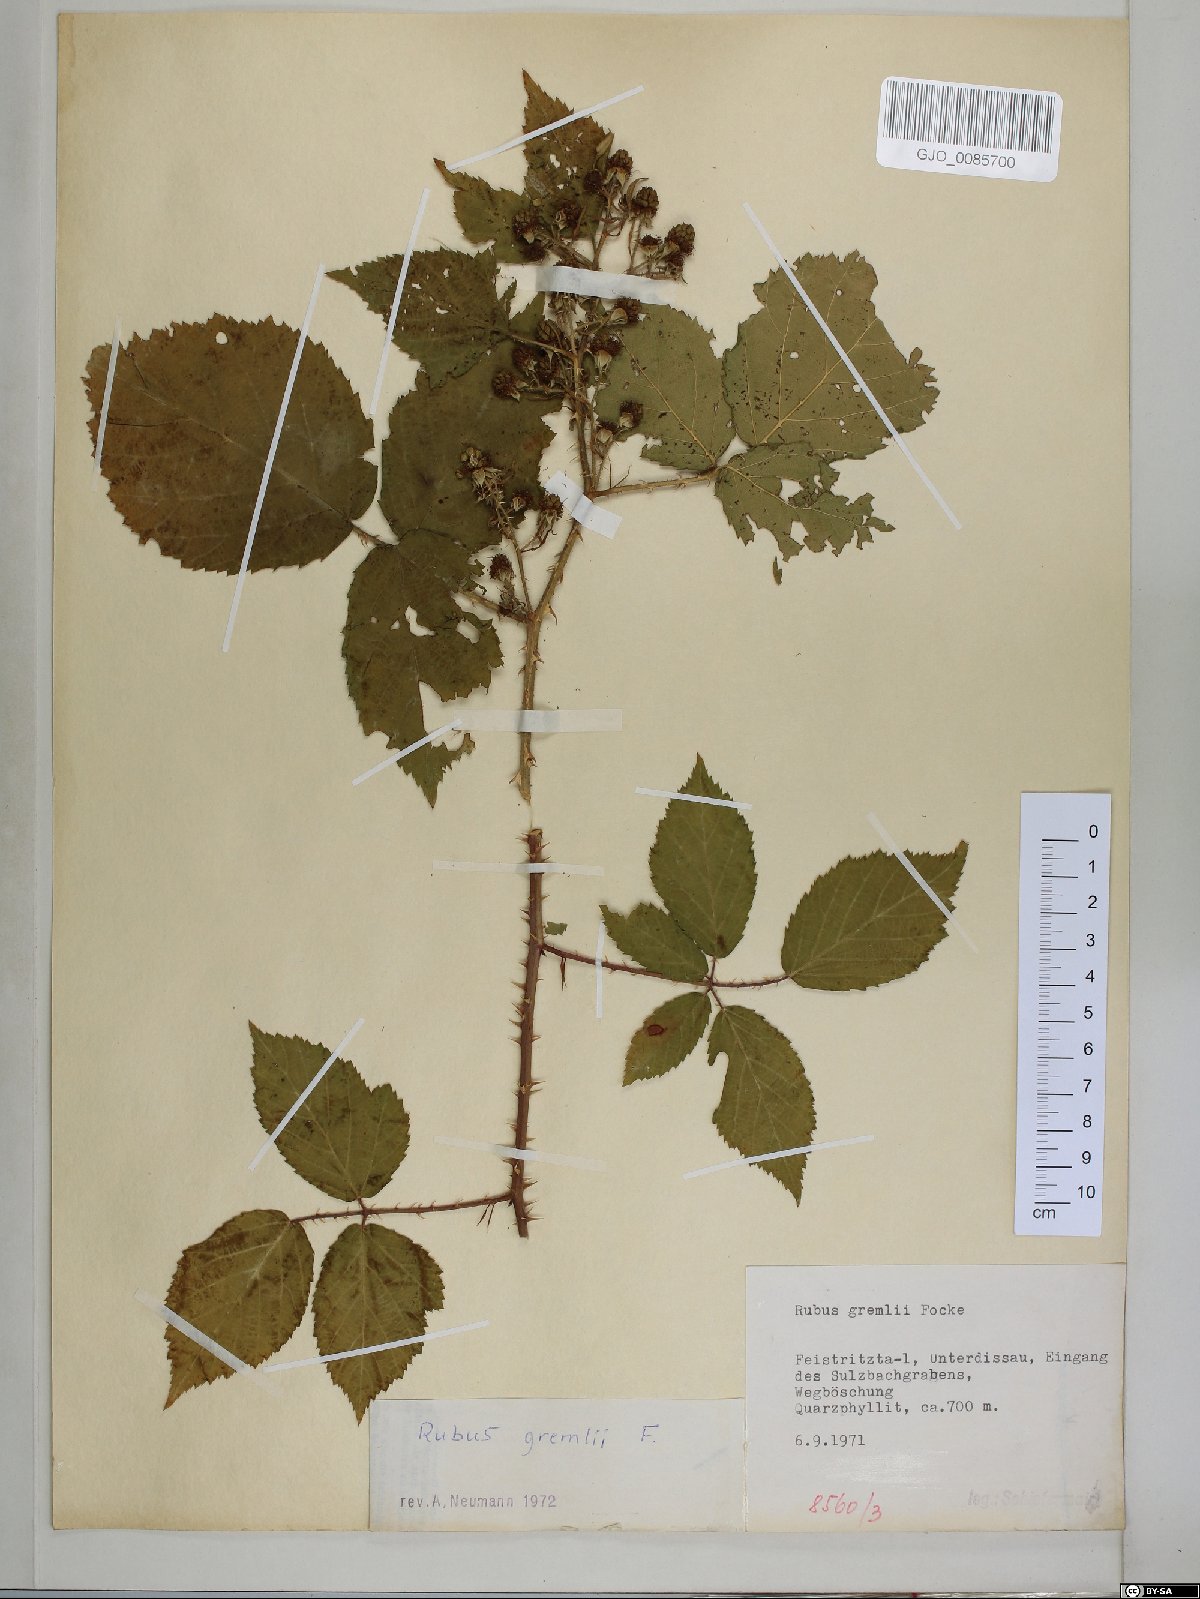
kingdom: Plantae
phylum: Tracheophyta
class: Magnoliopsida
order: Rosales
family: Rosaceae
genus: Rubus
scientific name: Rubus gremlii
